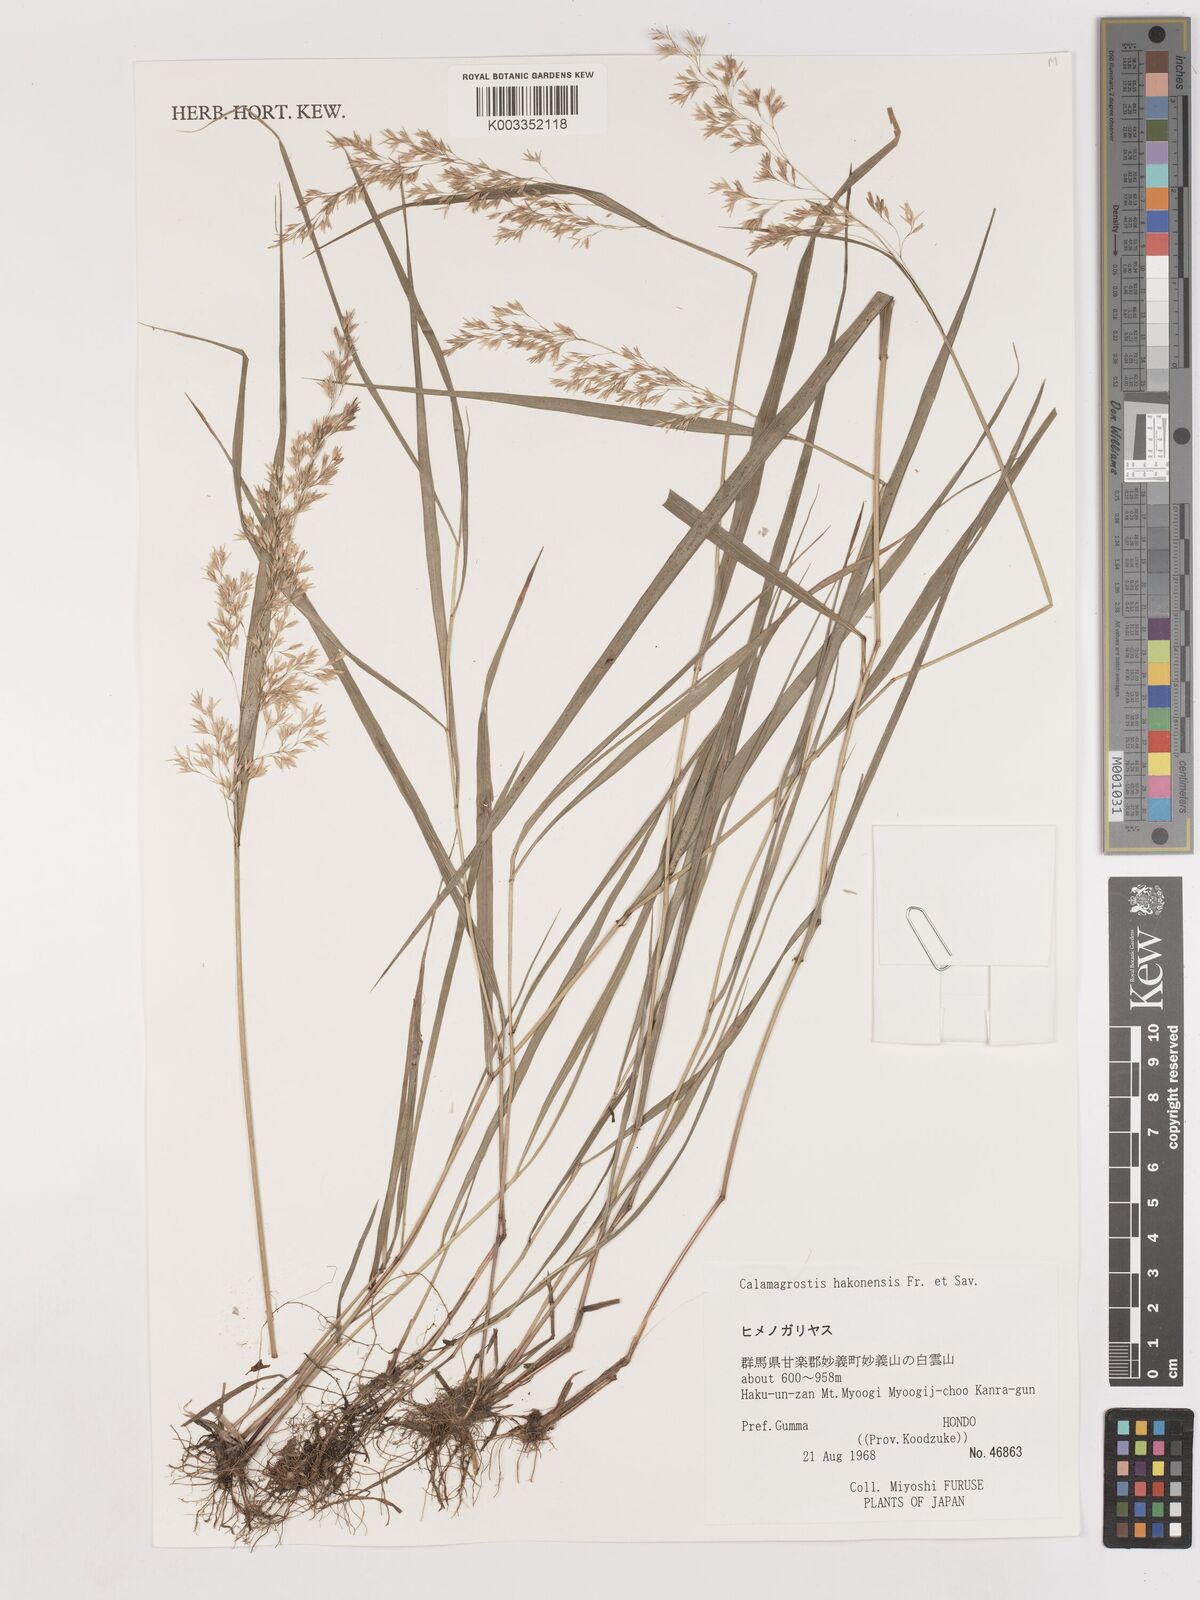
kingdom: Plantae
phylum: Tracheophyta
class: Liliopsida
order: Poales
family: Poaceae
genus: Calamagrostis
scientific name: Calamagrostis hakonensis
